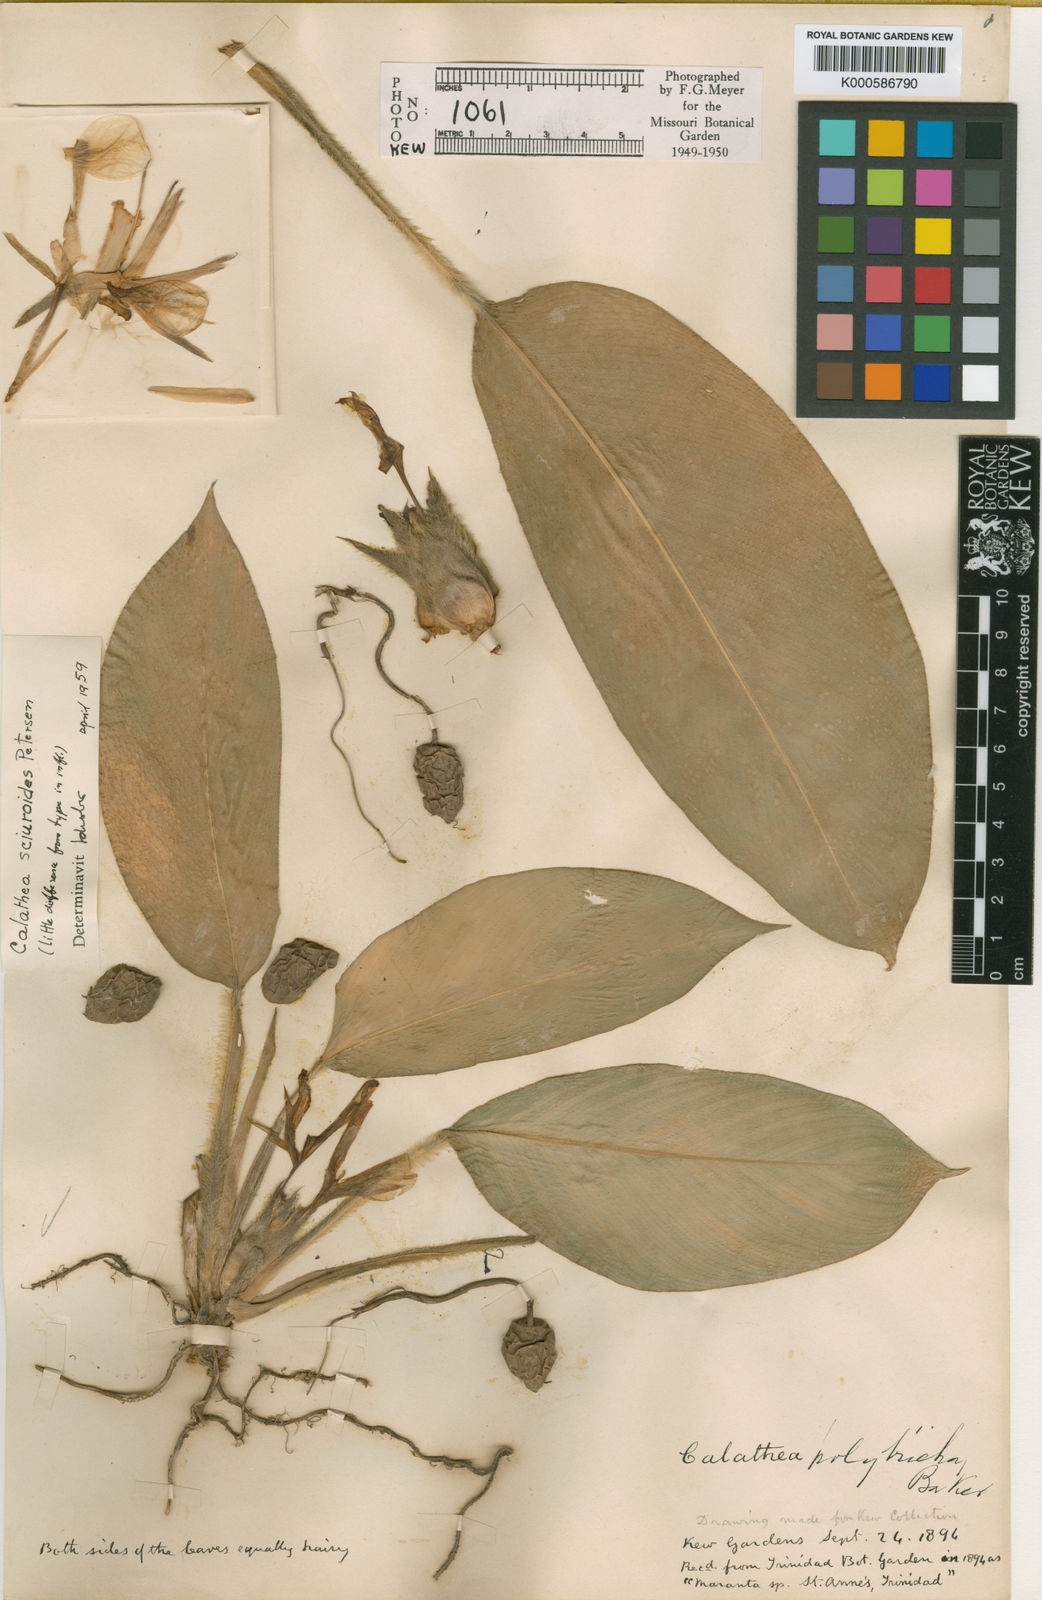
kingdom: Plantae
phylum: Tracheophyta
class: Liliopsida
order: Zingiberales
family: Marantaceae
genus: Goeppertia
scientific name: Goeppertia sciuroides
